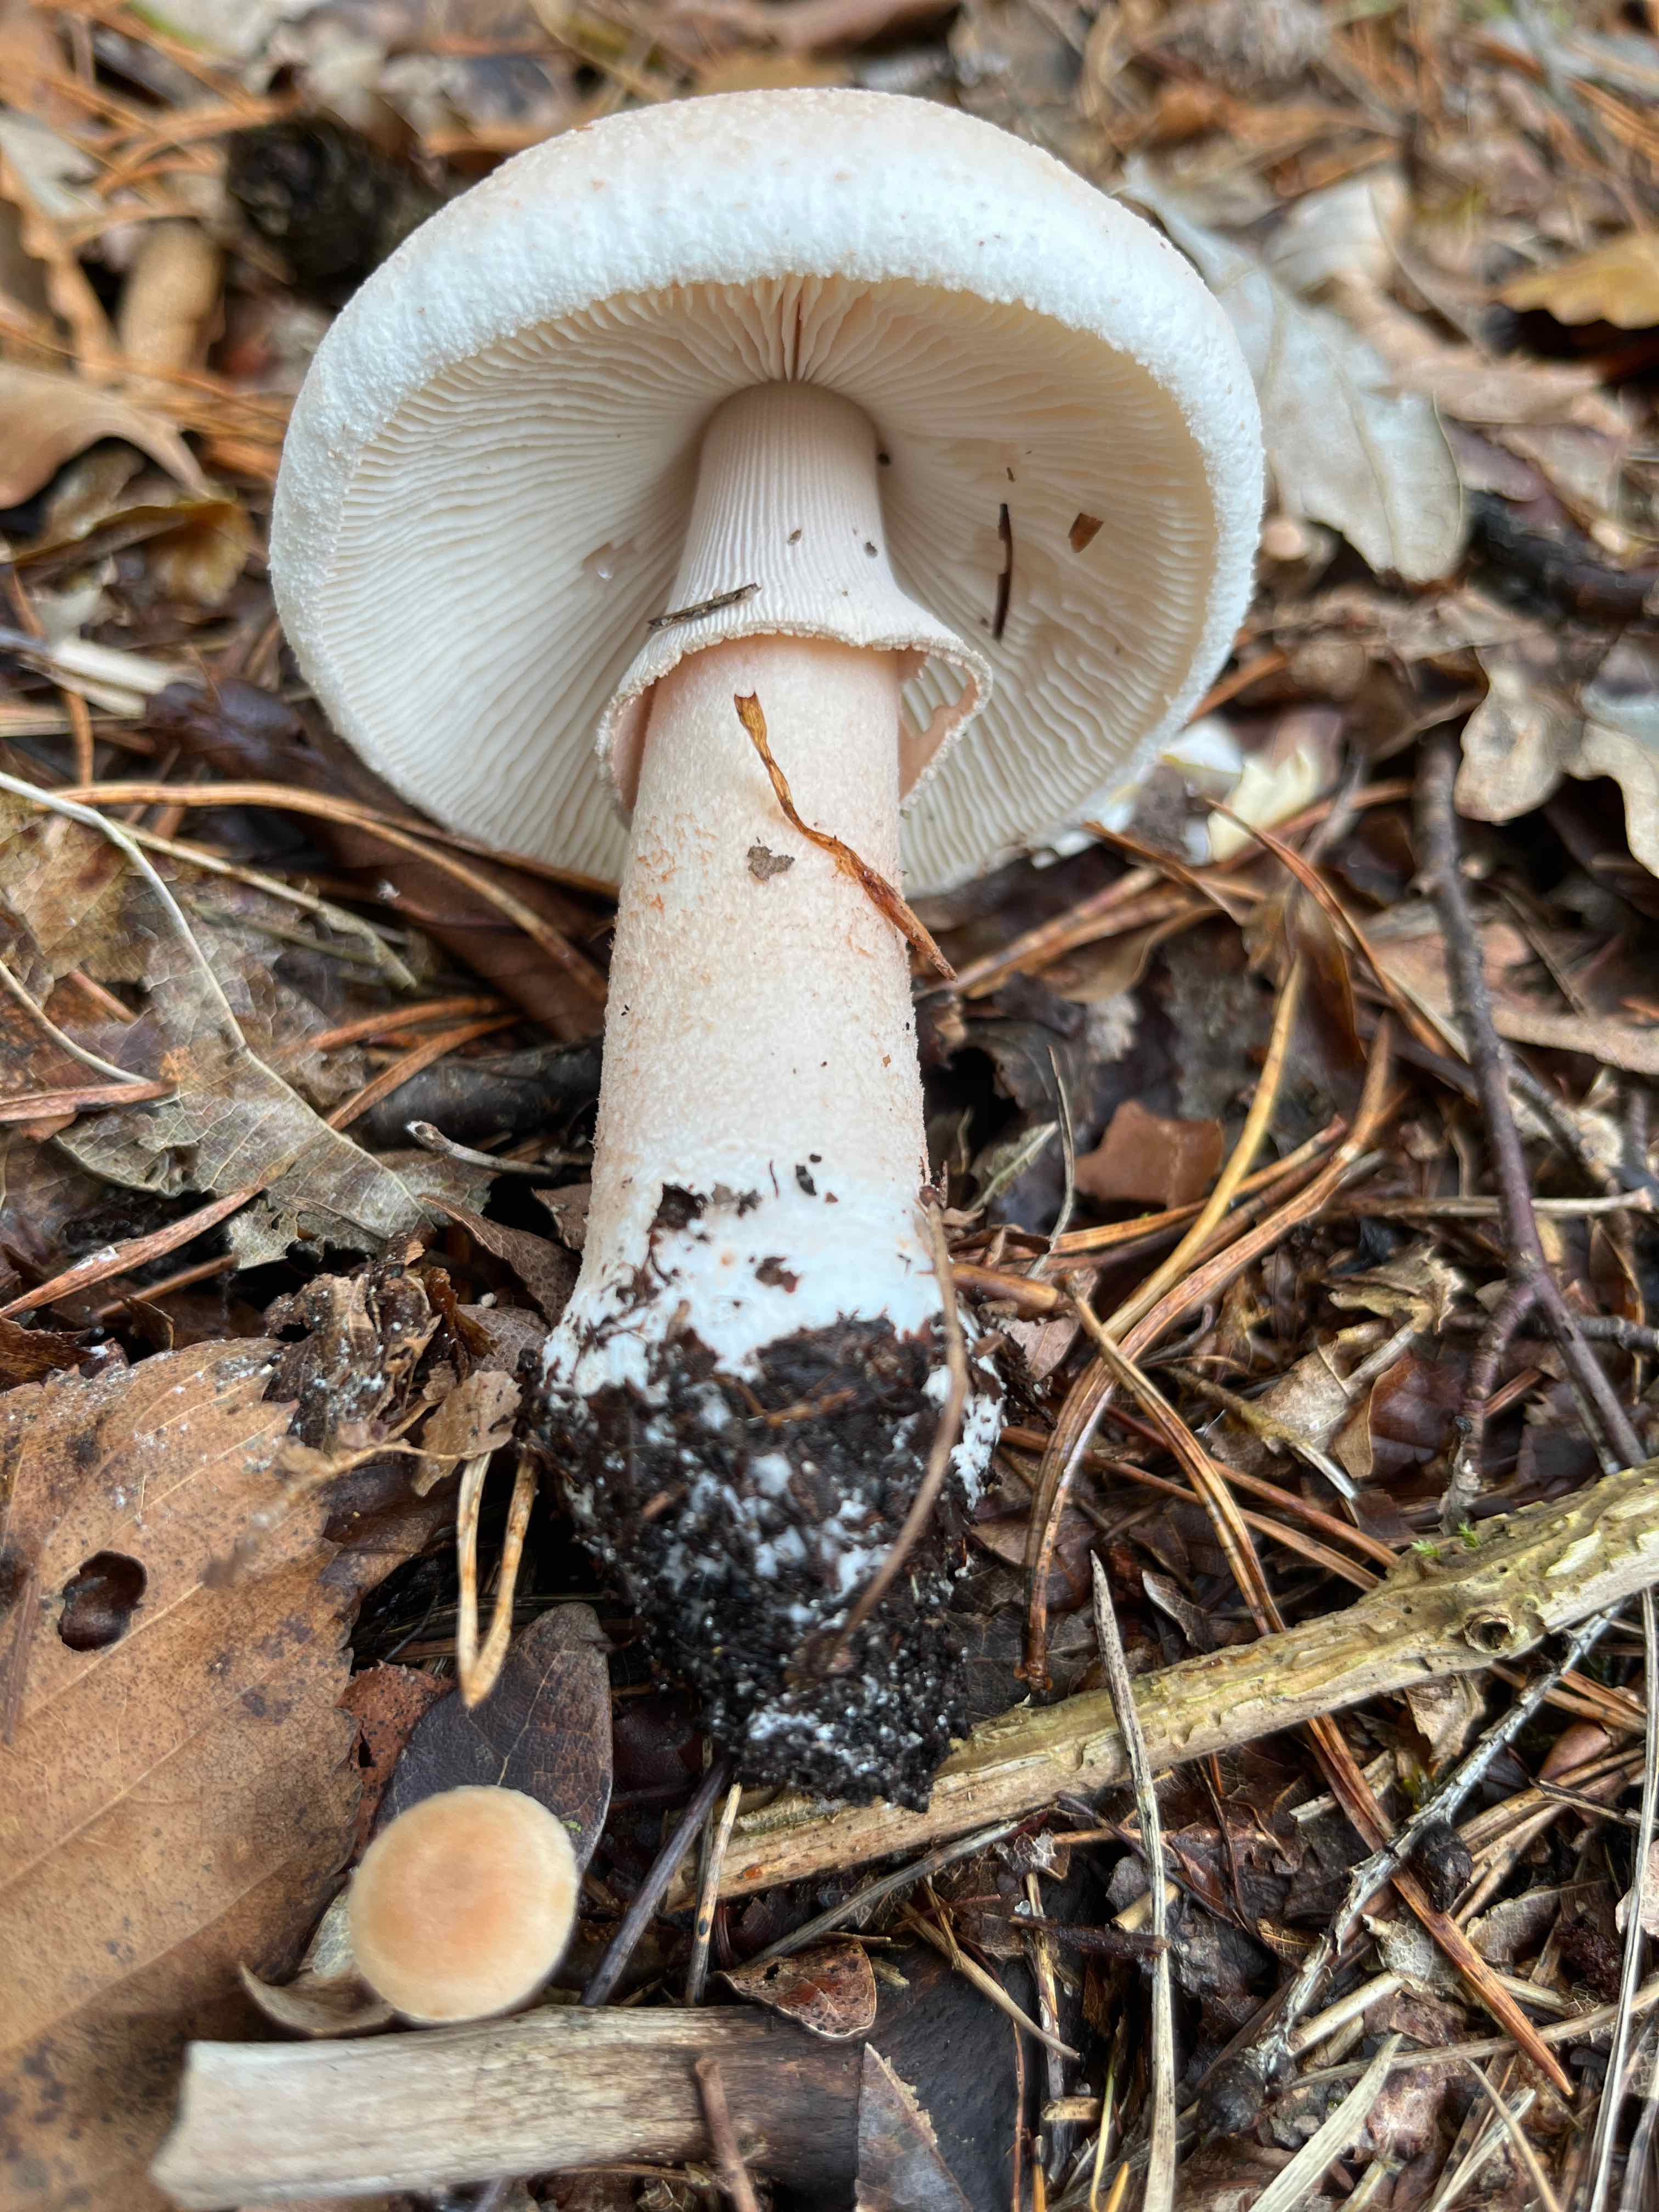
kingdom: Fungi
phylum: Basidiomycota
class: Agaricomycetes
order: Agaricales
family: Amanitaceae
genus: Amanita
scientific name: Amanita rubescens
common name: rødmende fluesvamp
